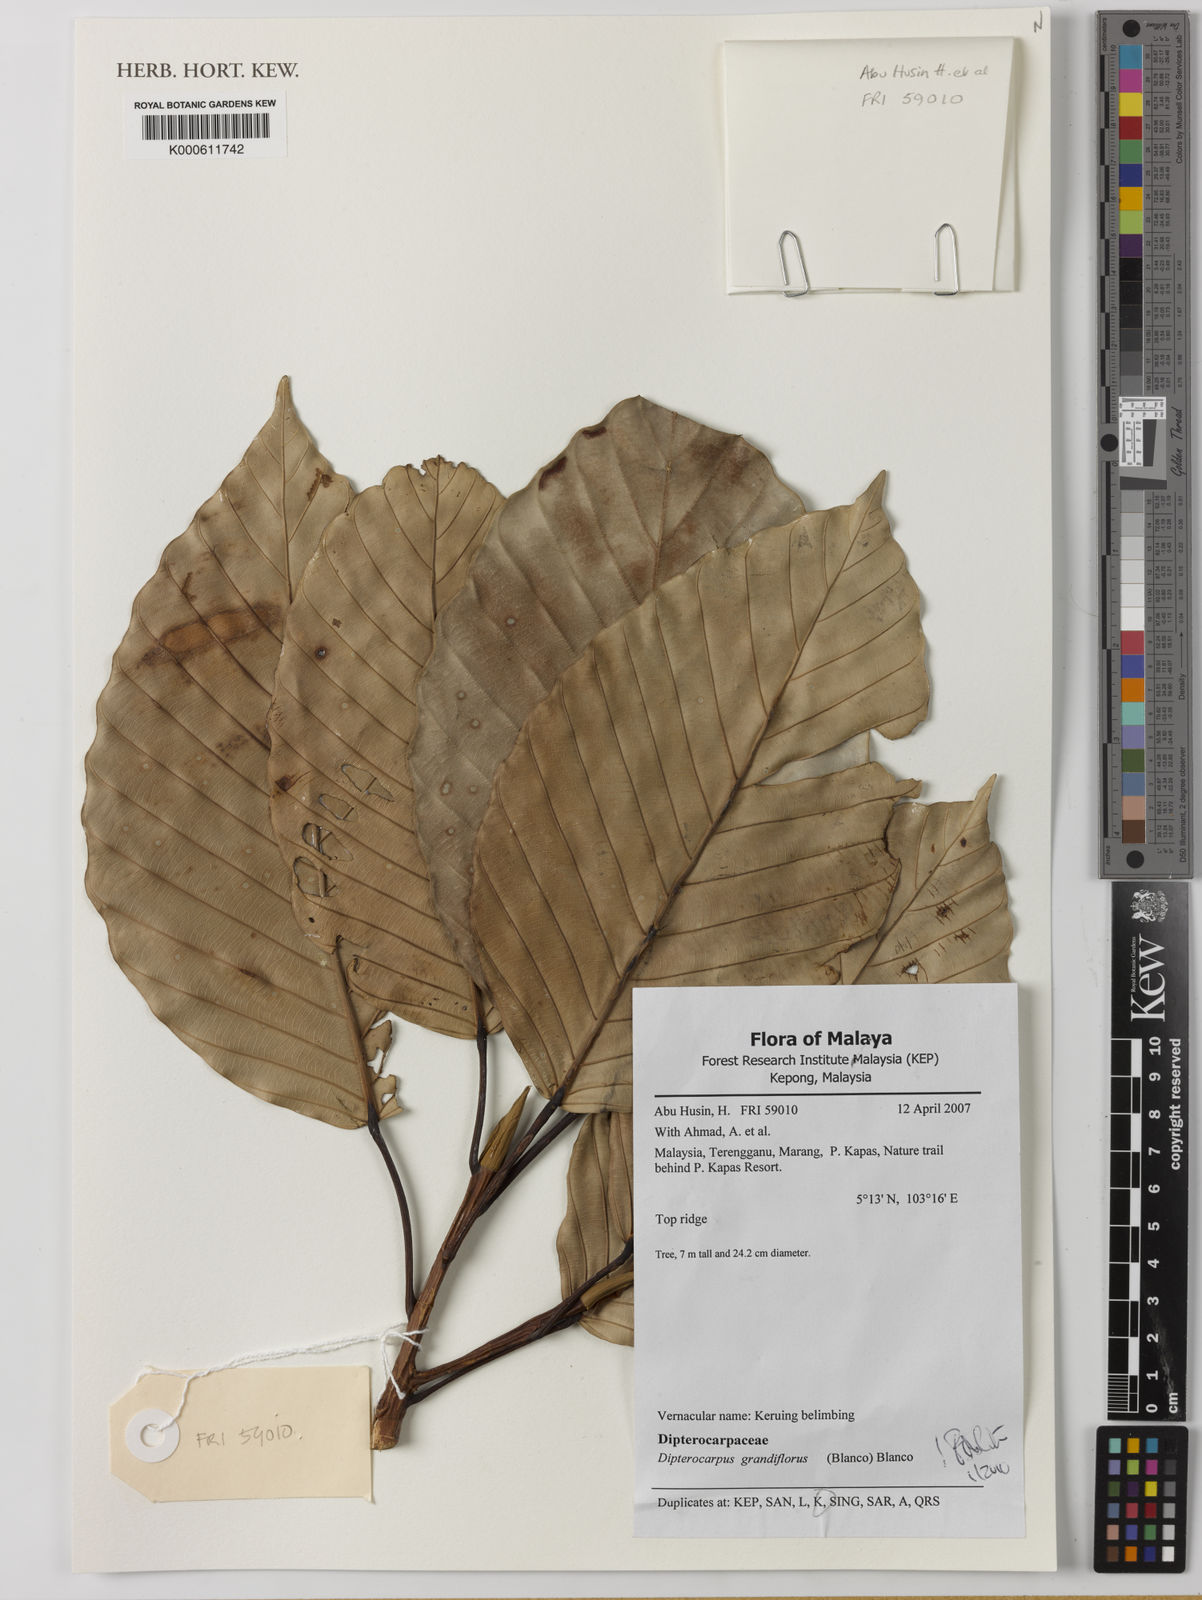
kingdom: Plantae
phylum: Tracheophyta
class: Magnoliopsida
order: Malvales
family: Dipterocarpaceae
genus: Dipterocarpus
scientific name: Dipterocarpus grandiflorus
